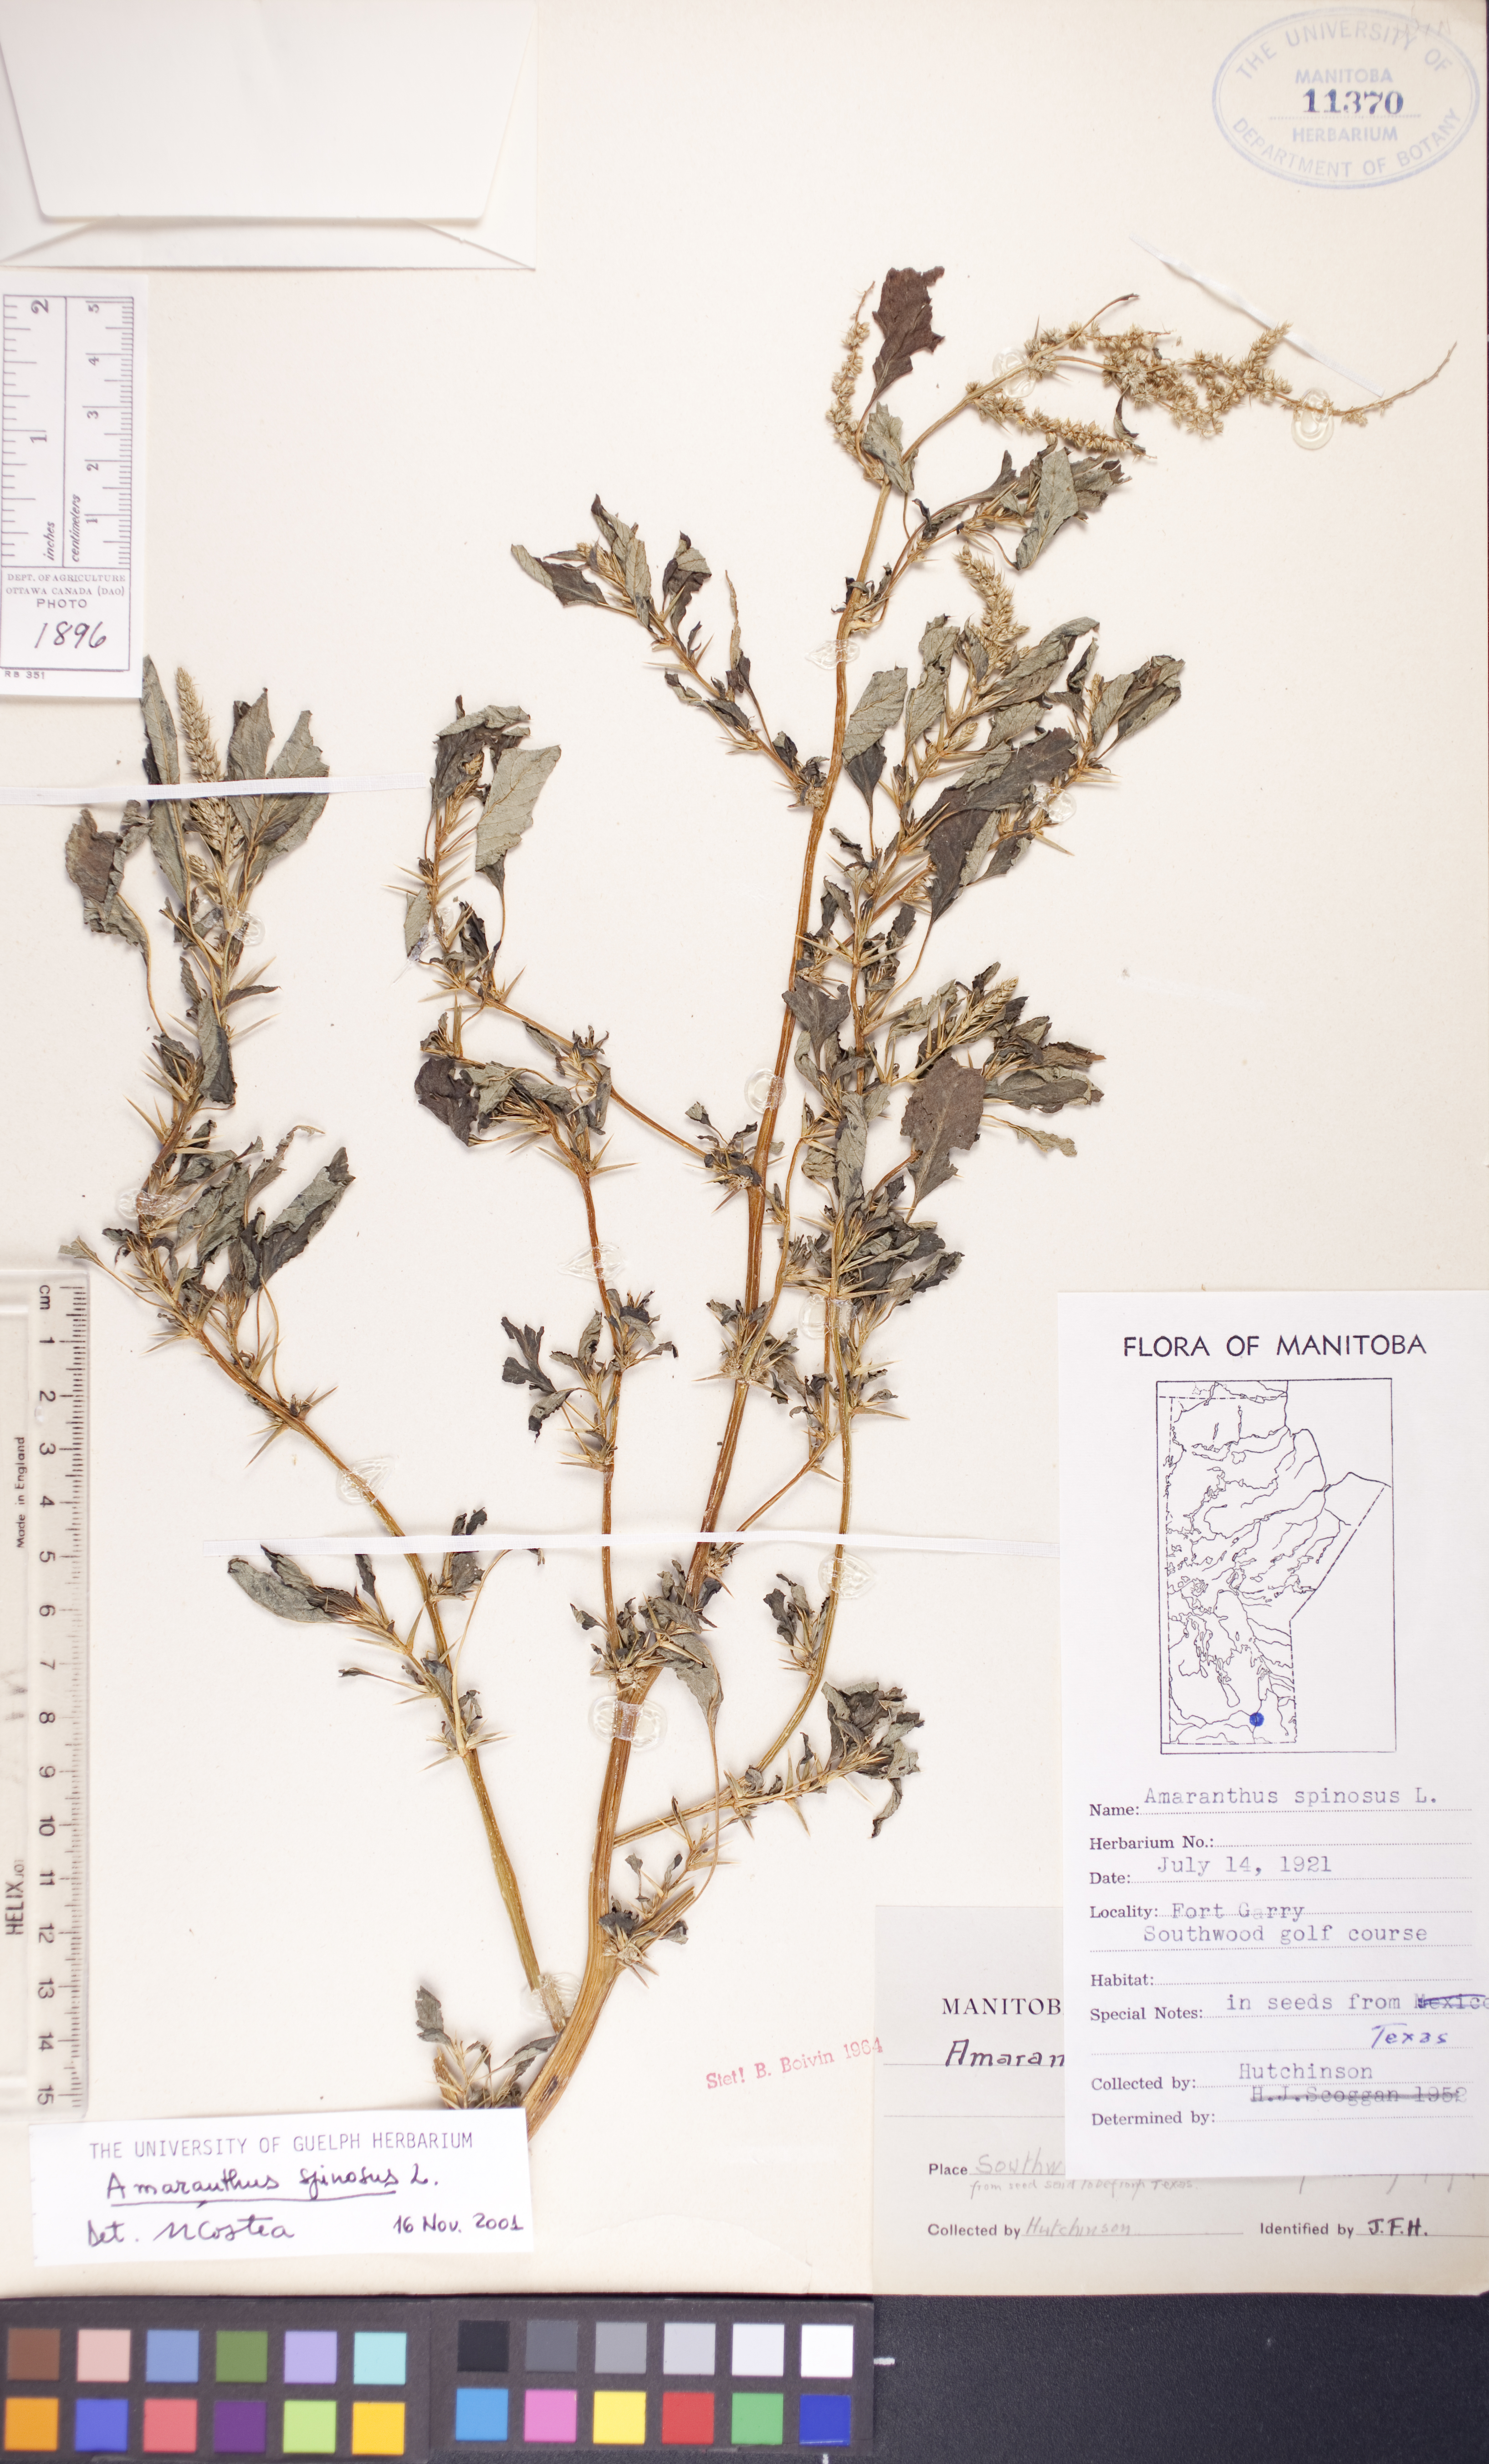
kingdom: Plantae
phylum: Tracheophyta
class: Magnoliopsida
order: Caryophyllales
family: Amaranthaceae
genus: Amaranthus
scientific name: Amaranthus spinosus
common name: Spiny amaranth
